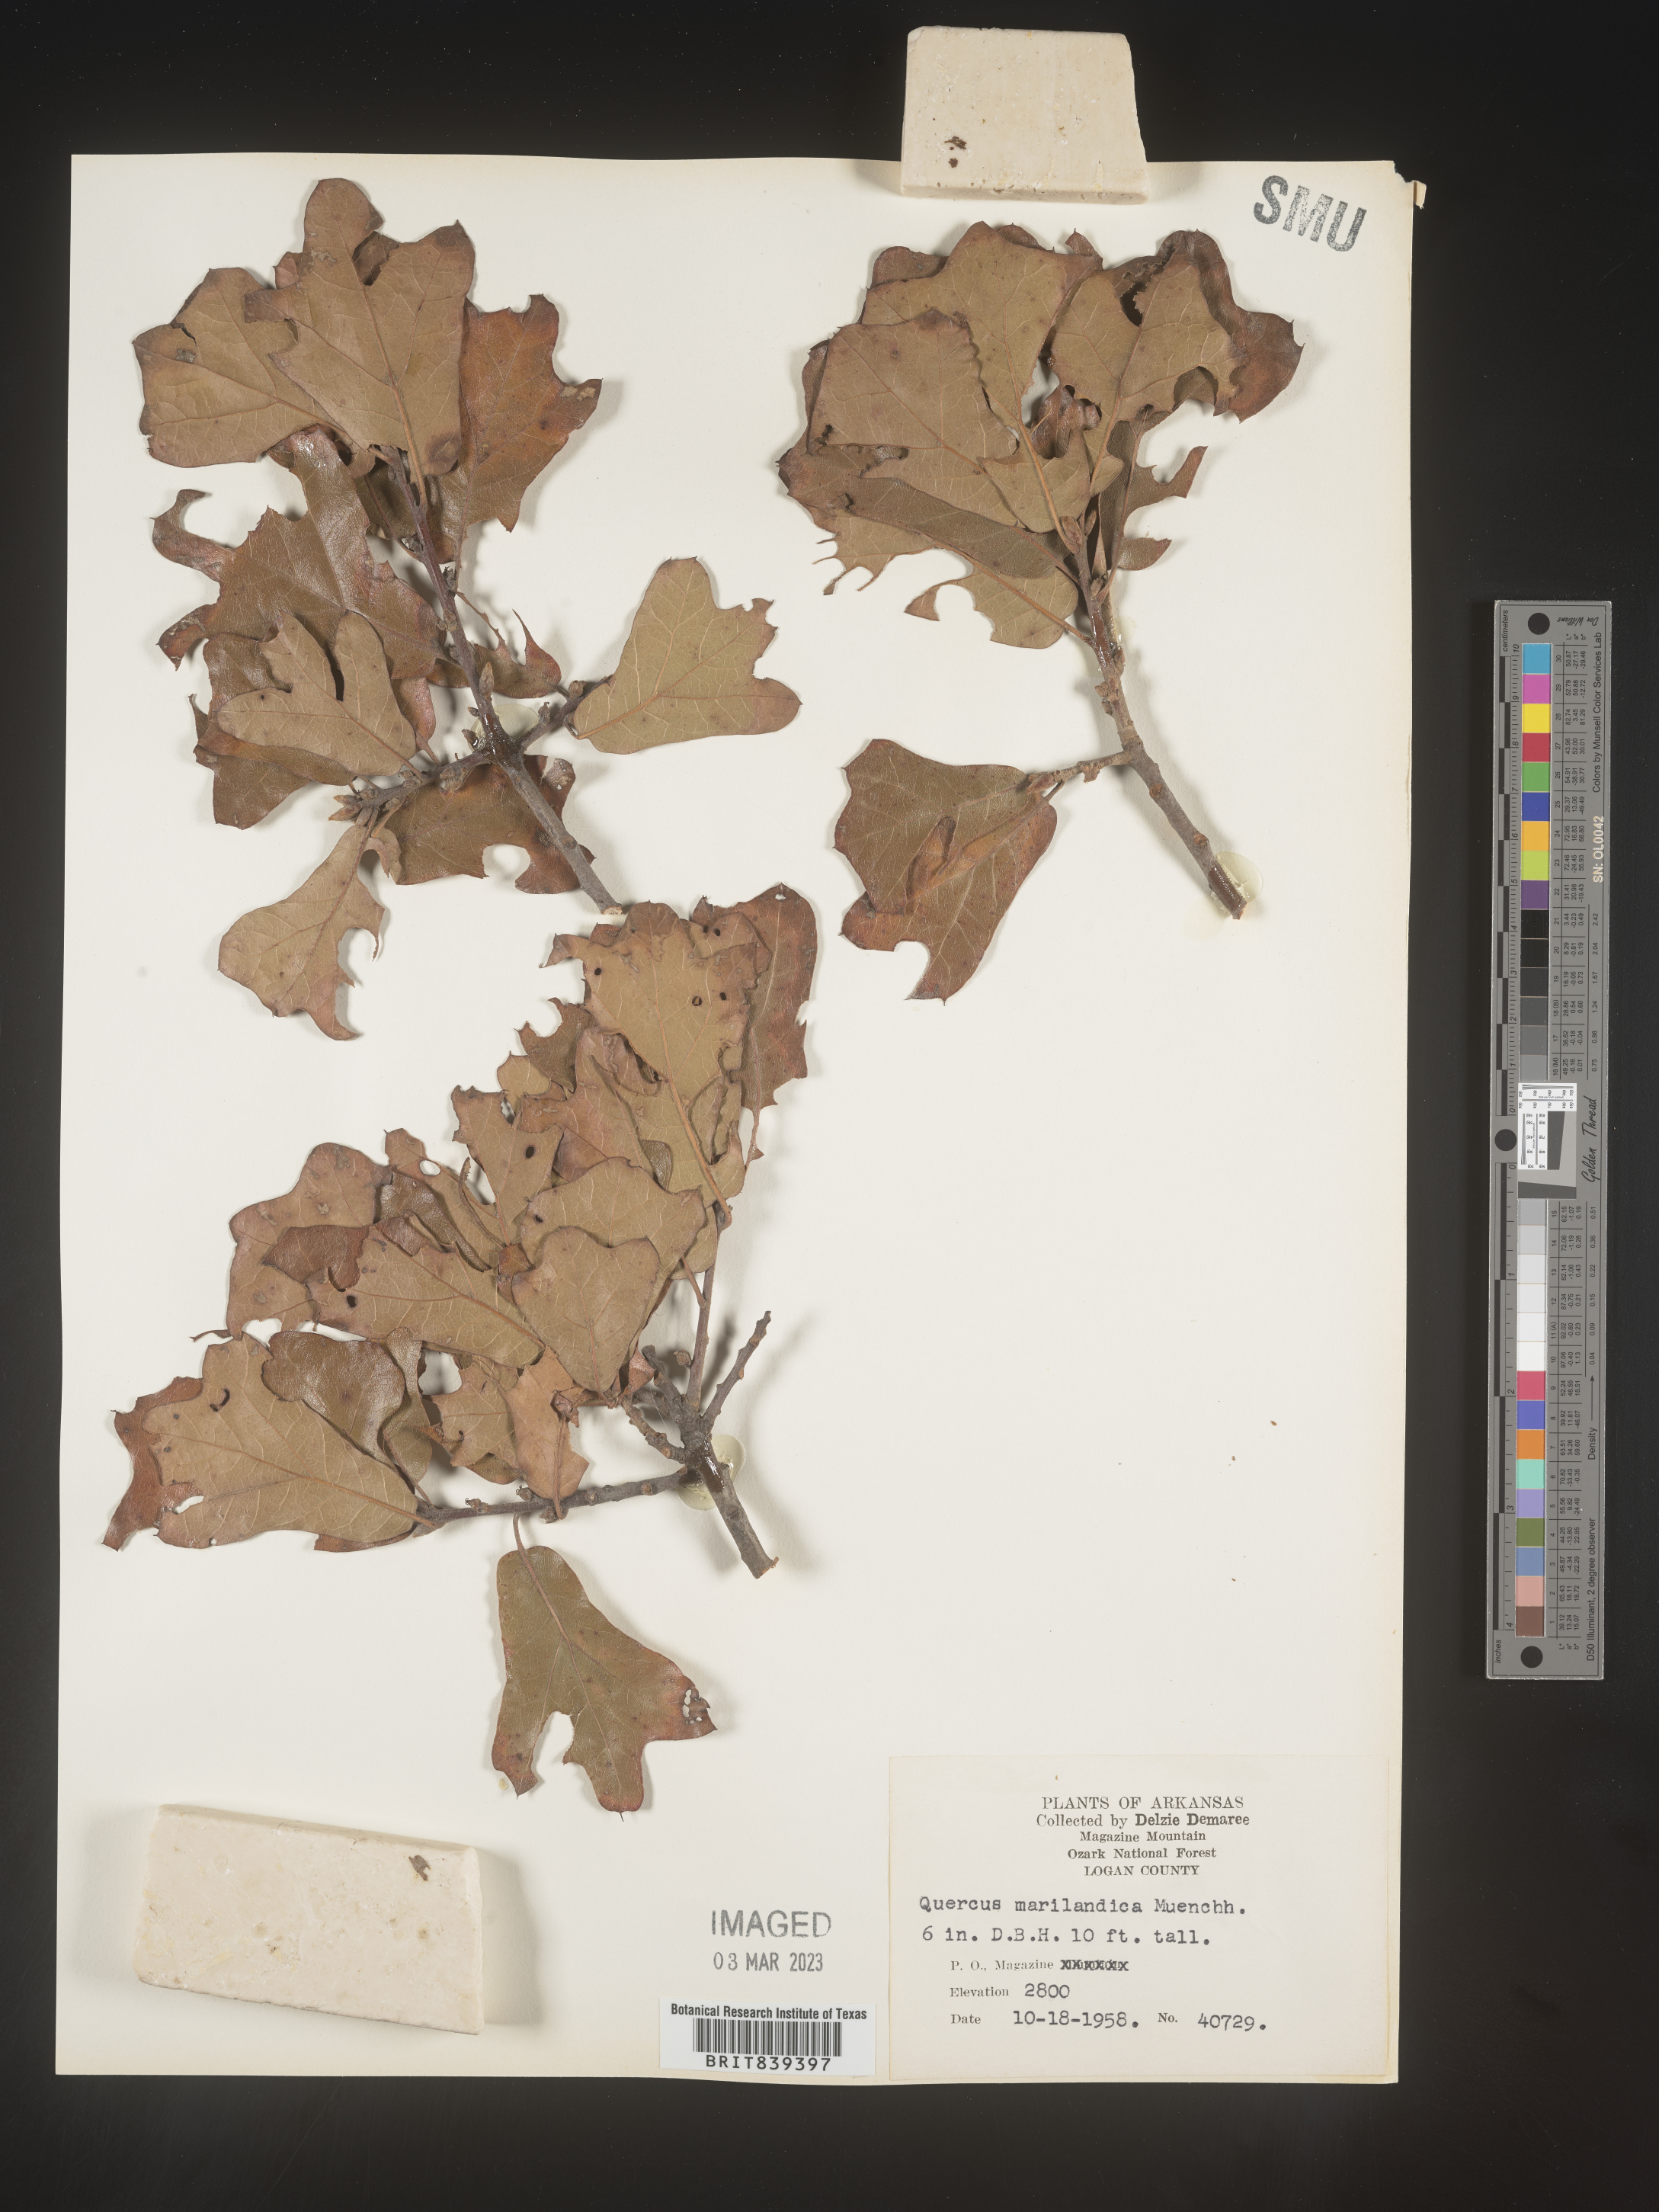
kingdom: Plantae
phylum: Tracheophyta
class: Magnoliopsida
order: Fagales
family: Fagaceae
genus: Quercus
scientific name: Quercus marilandica
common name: Blackjack oak
